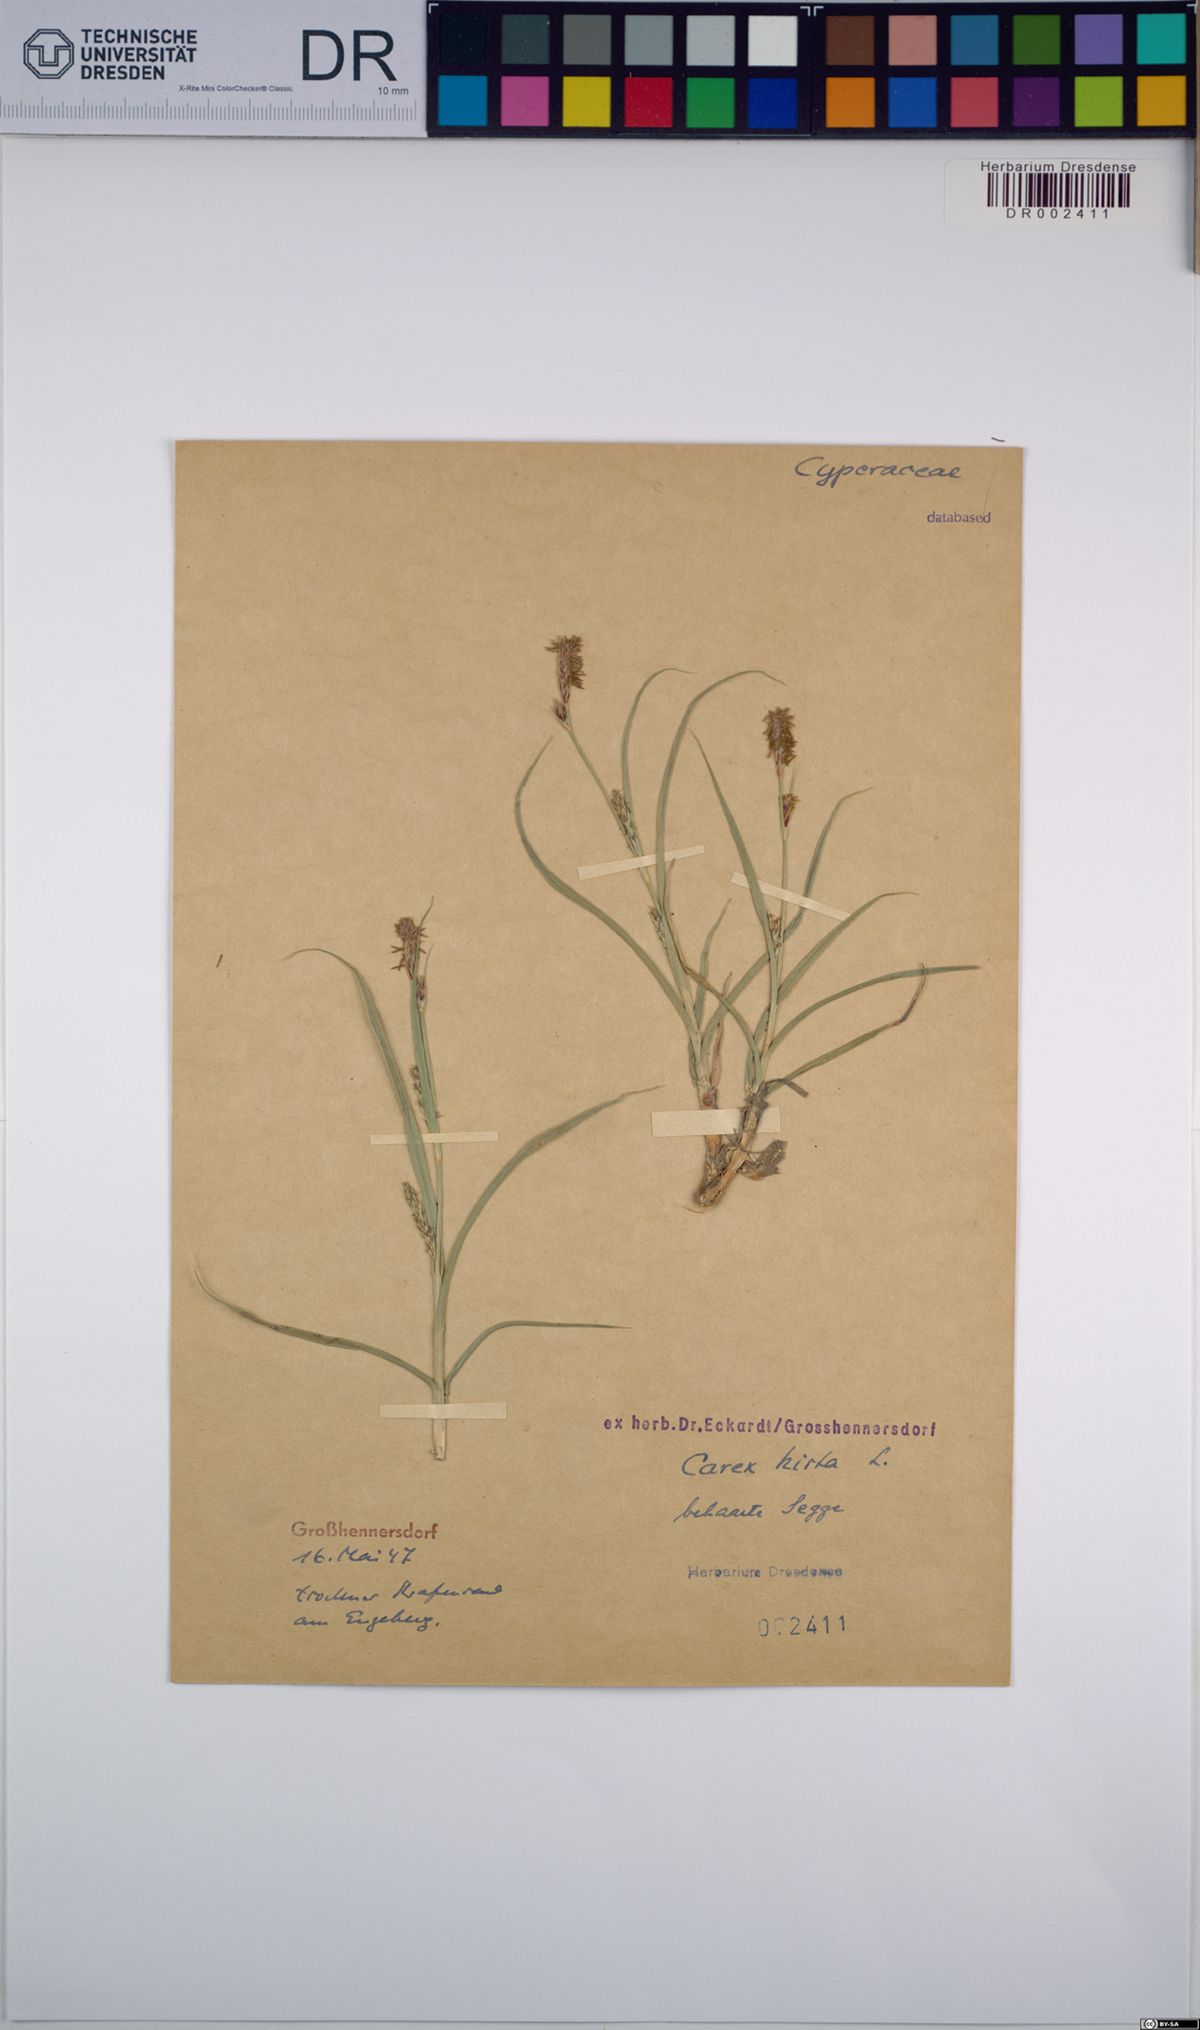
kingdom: Plantae
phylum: Tracheophyta
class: Liliopsida
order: Poales
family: Cyperaceae
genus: Carex
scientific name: Carex hirta
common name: Hairy sedge
